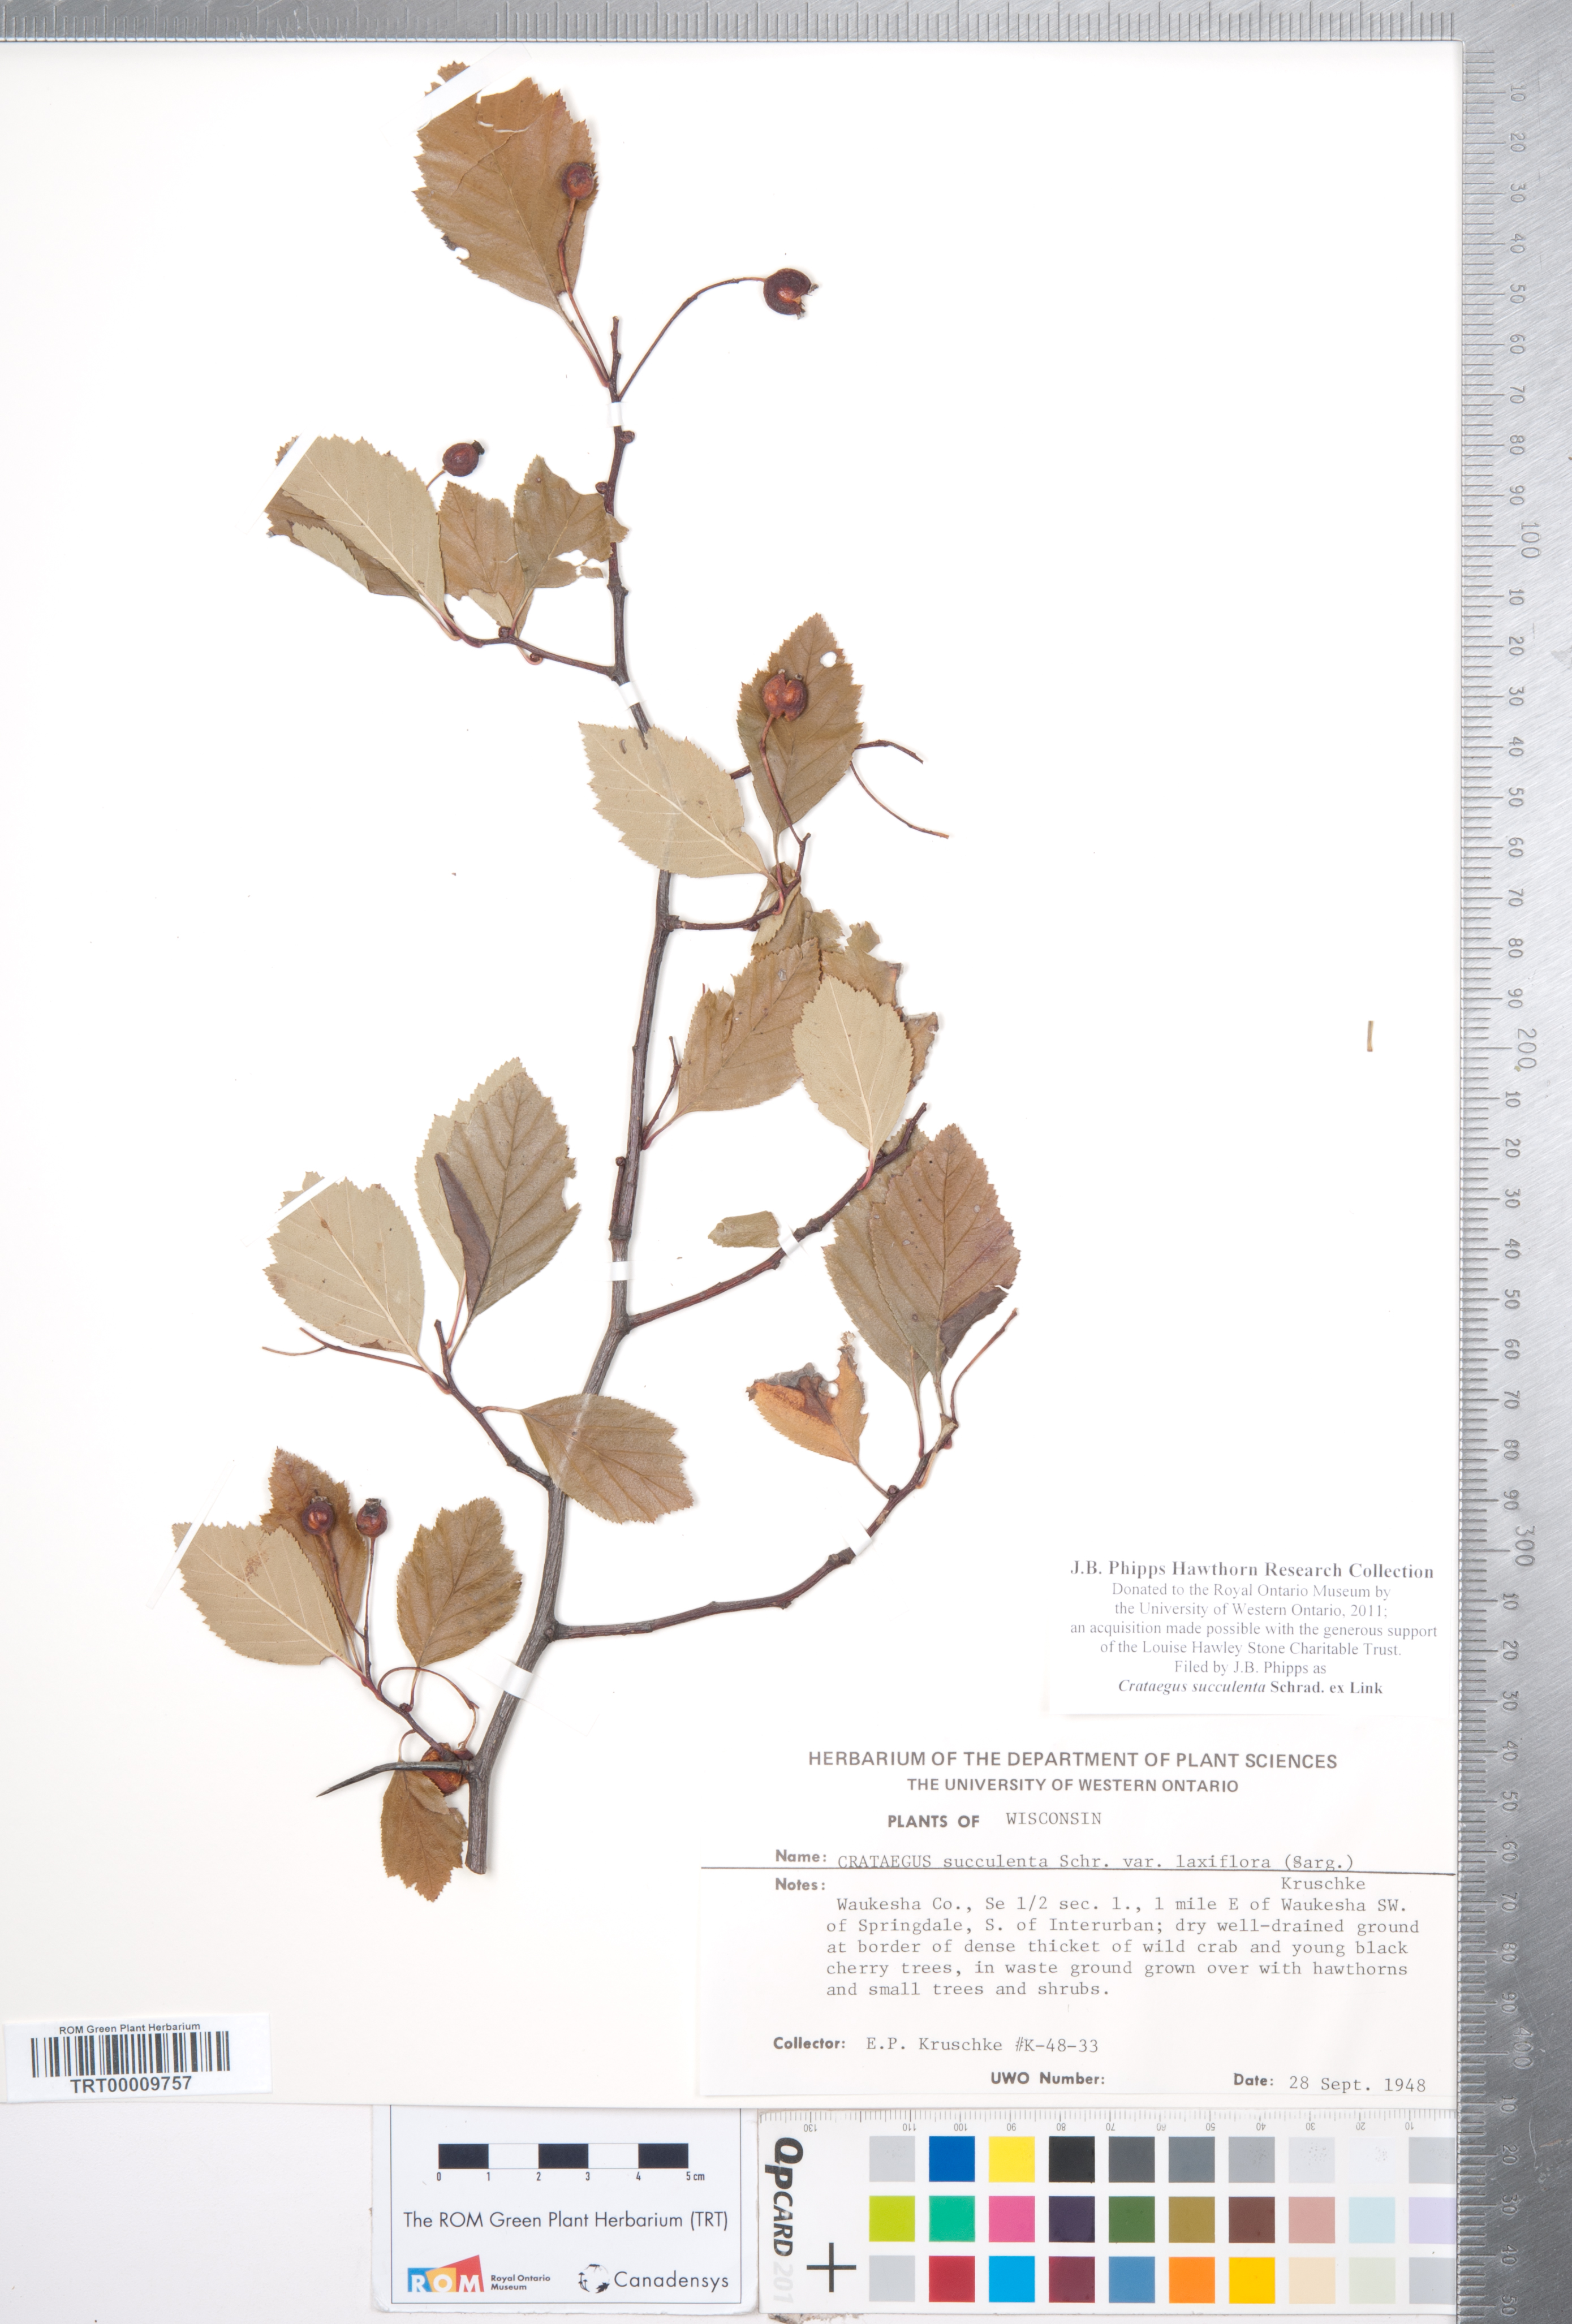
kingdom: Plantae
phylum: Tracheophyta
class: Magnoliopsida
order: Rosales
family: Rosaceae
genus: Crataegus
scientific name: Crataegus succulenta
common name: Fleshy hawthorn
